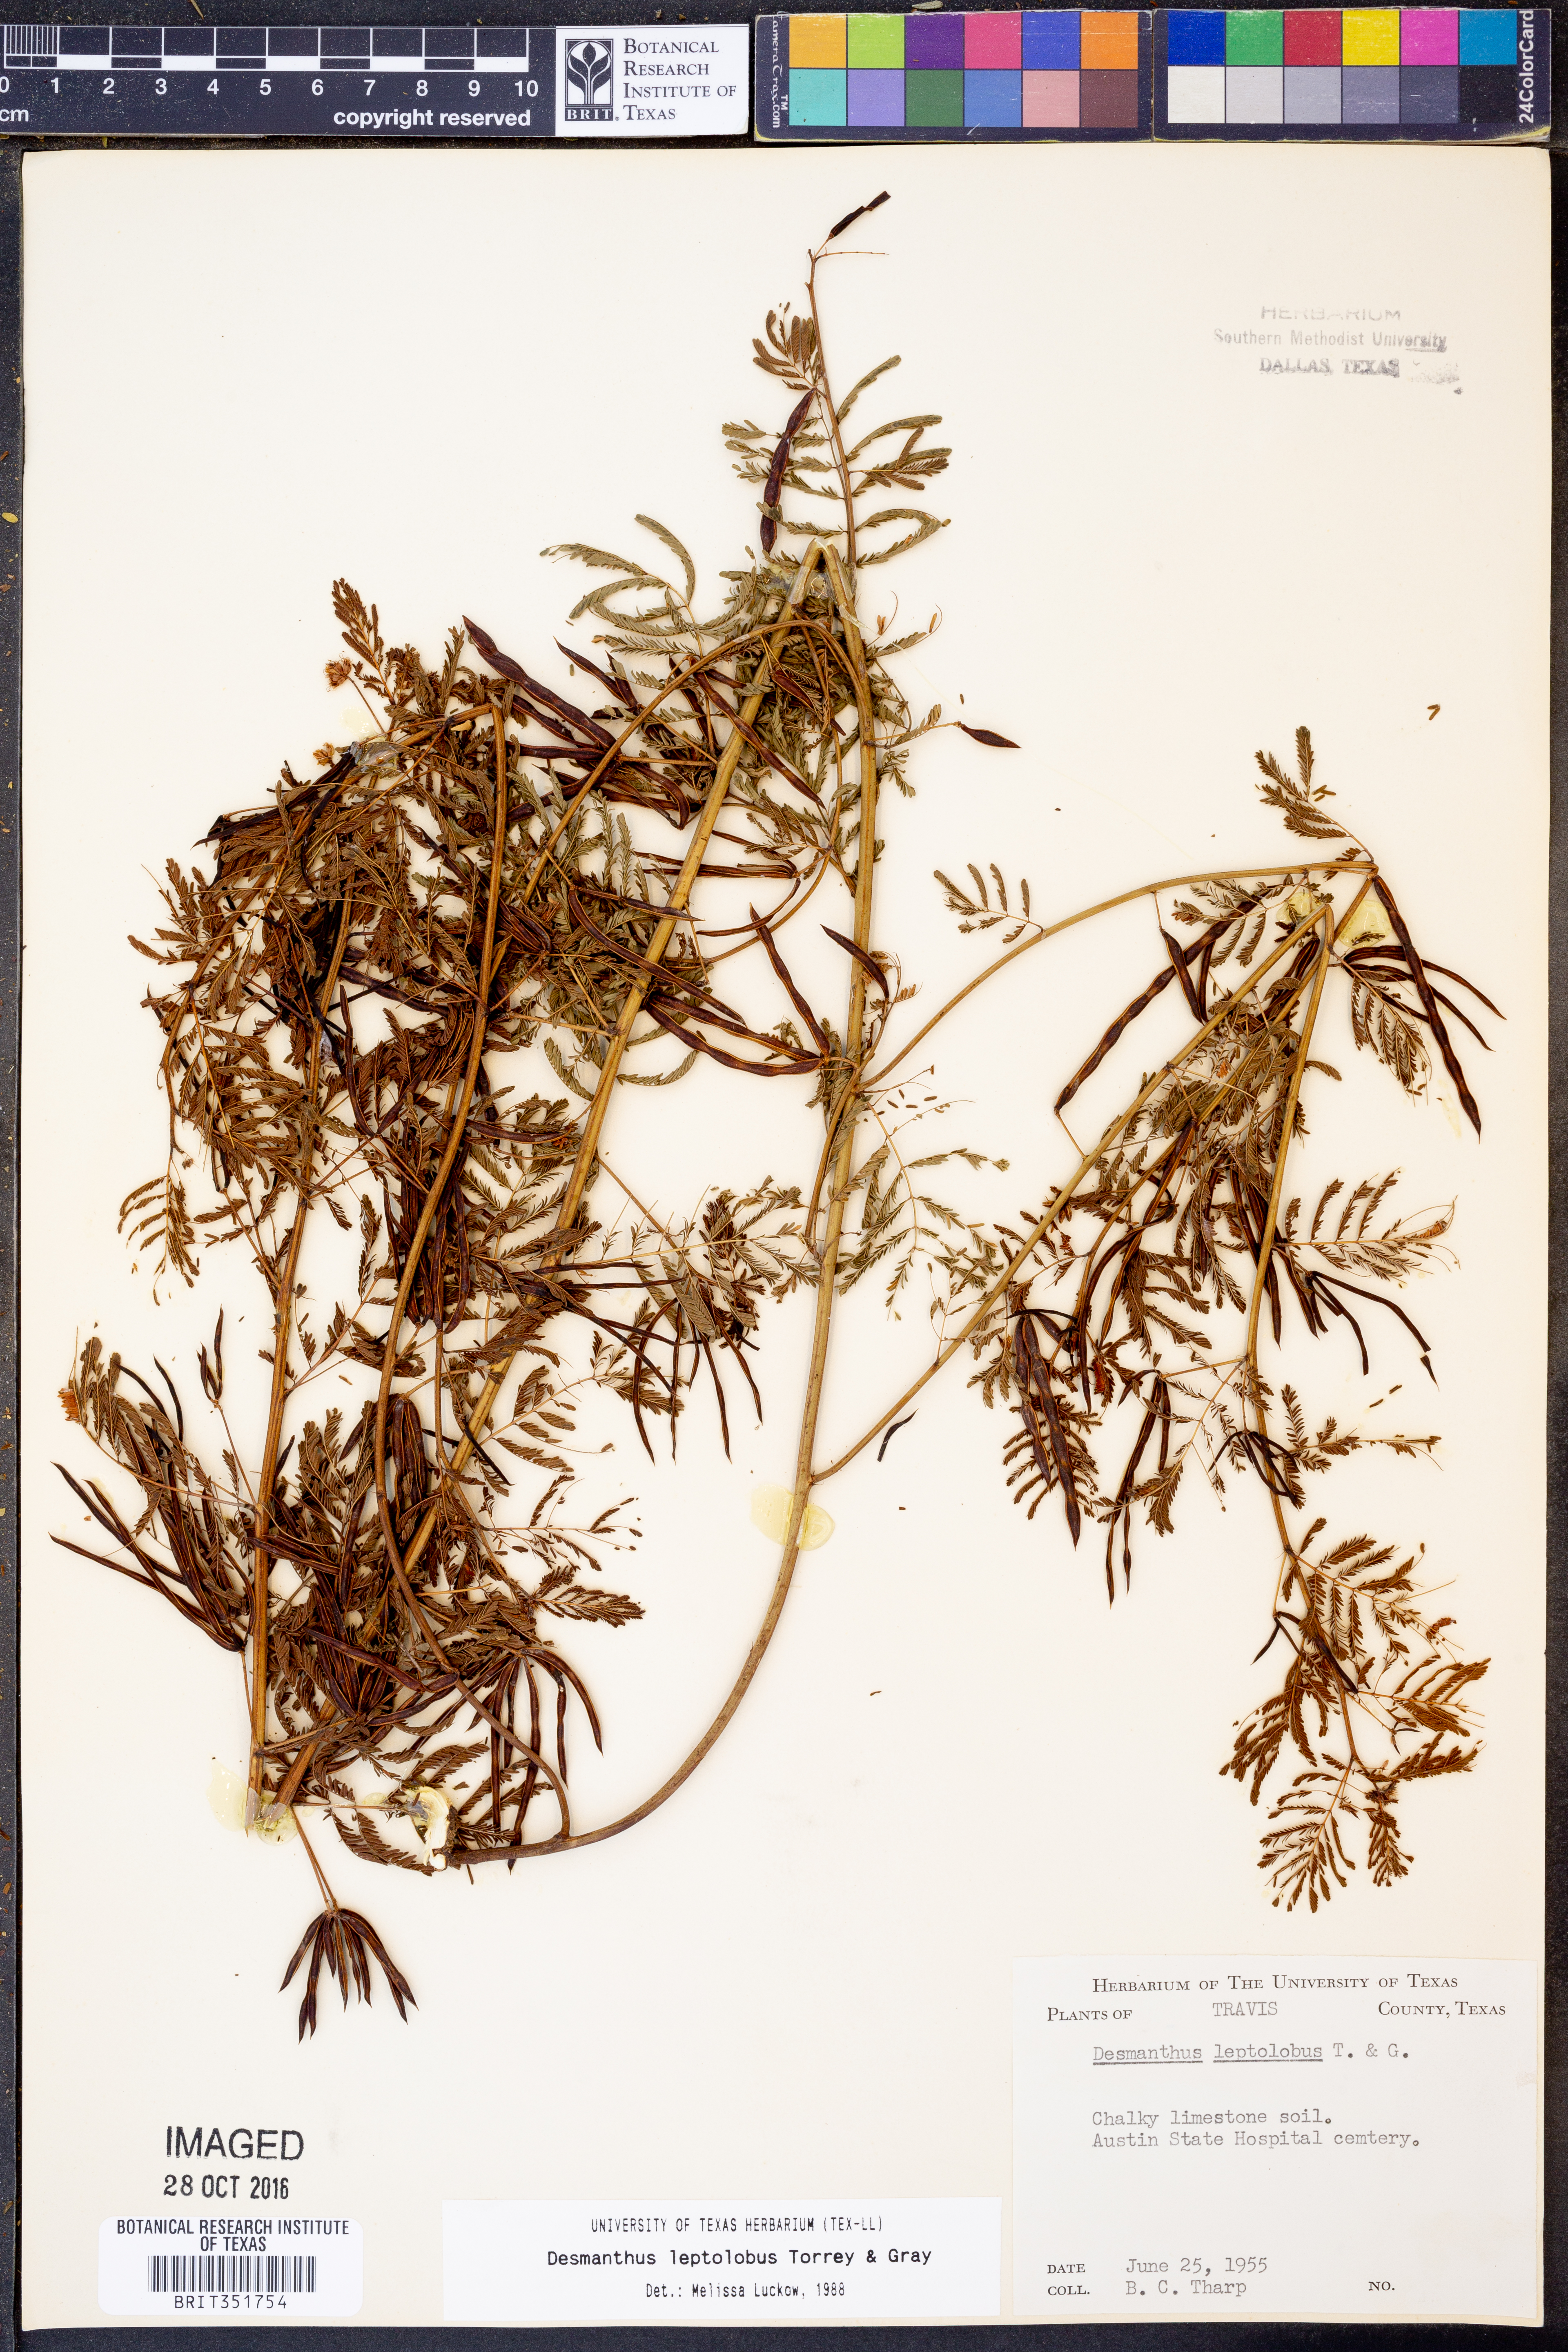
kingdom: Plantae
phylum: Tracheophyta
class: Magnoliopsida
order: Fabales
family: Fabaceae
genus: Desmanthus
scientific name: Desmanthus leptolobus
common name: Prairie-mimosa
